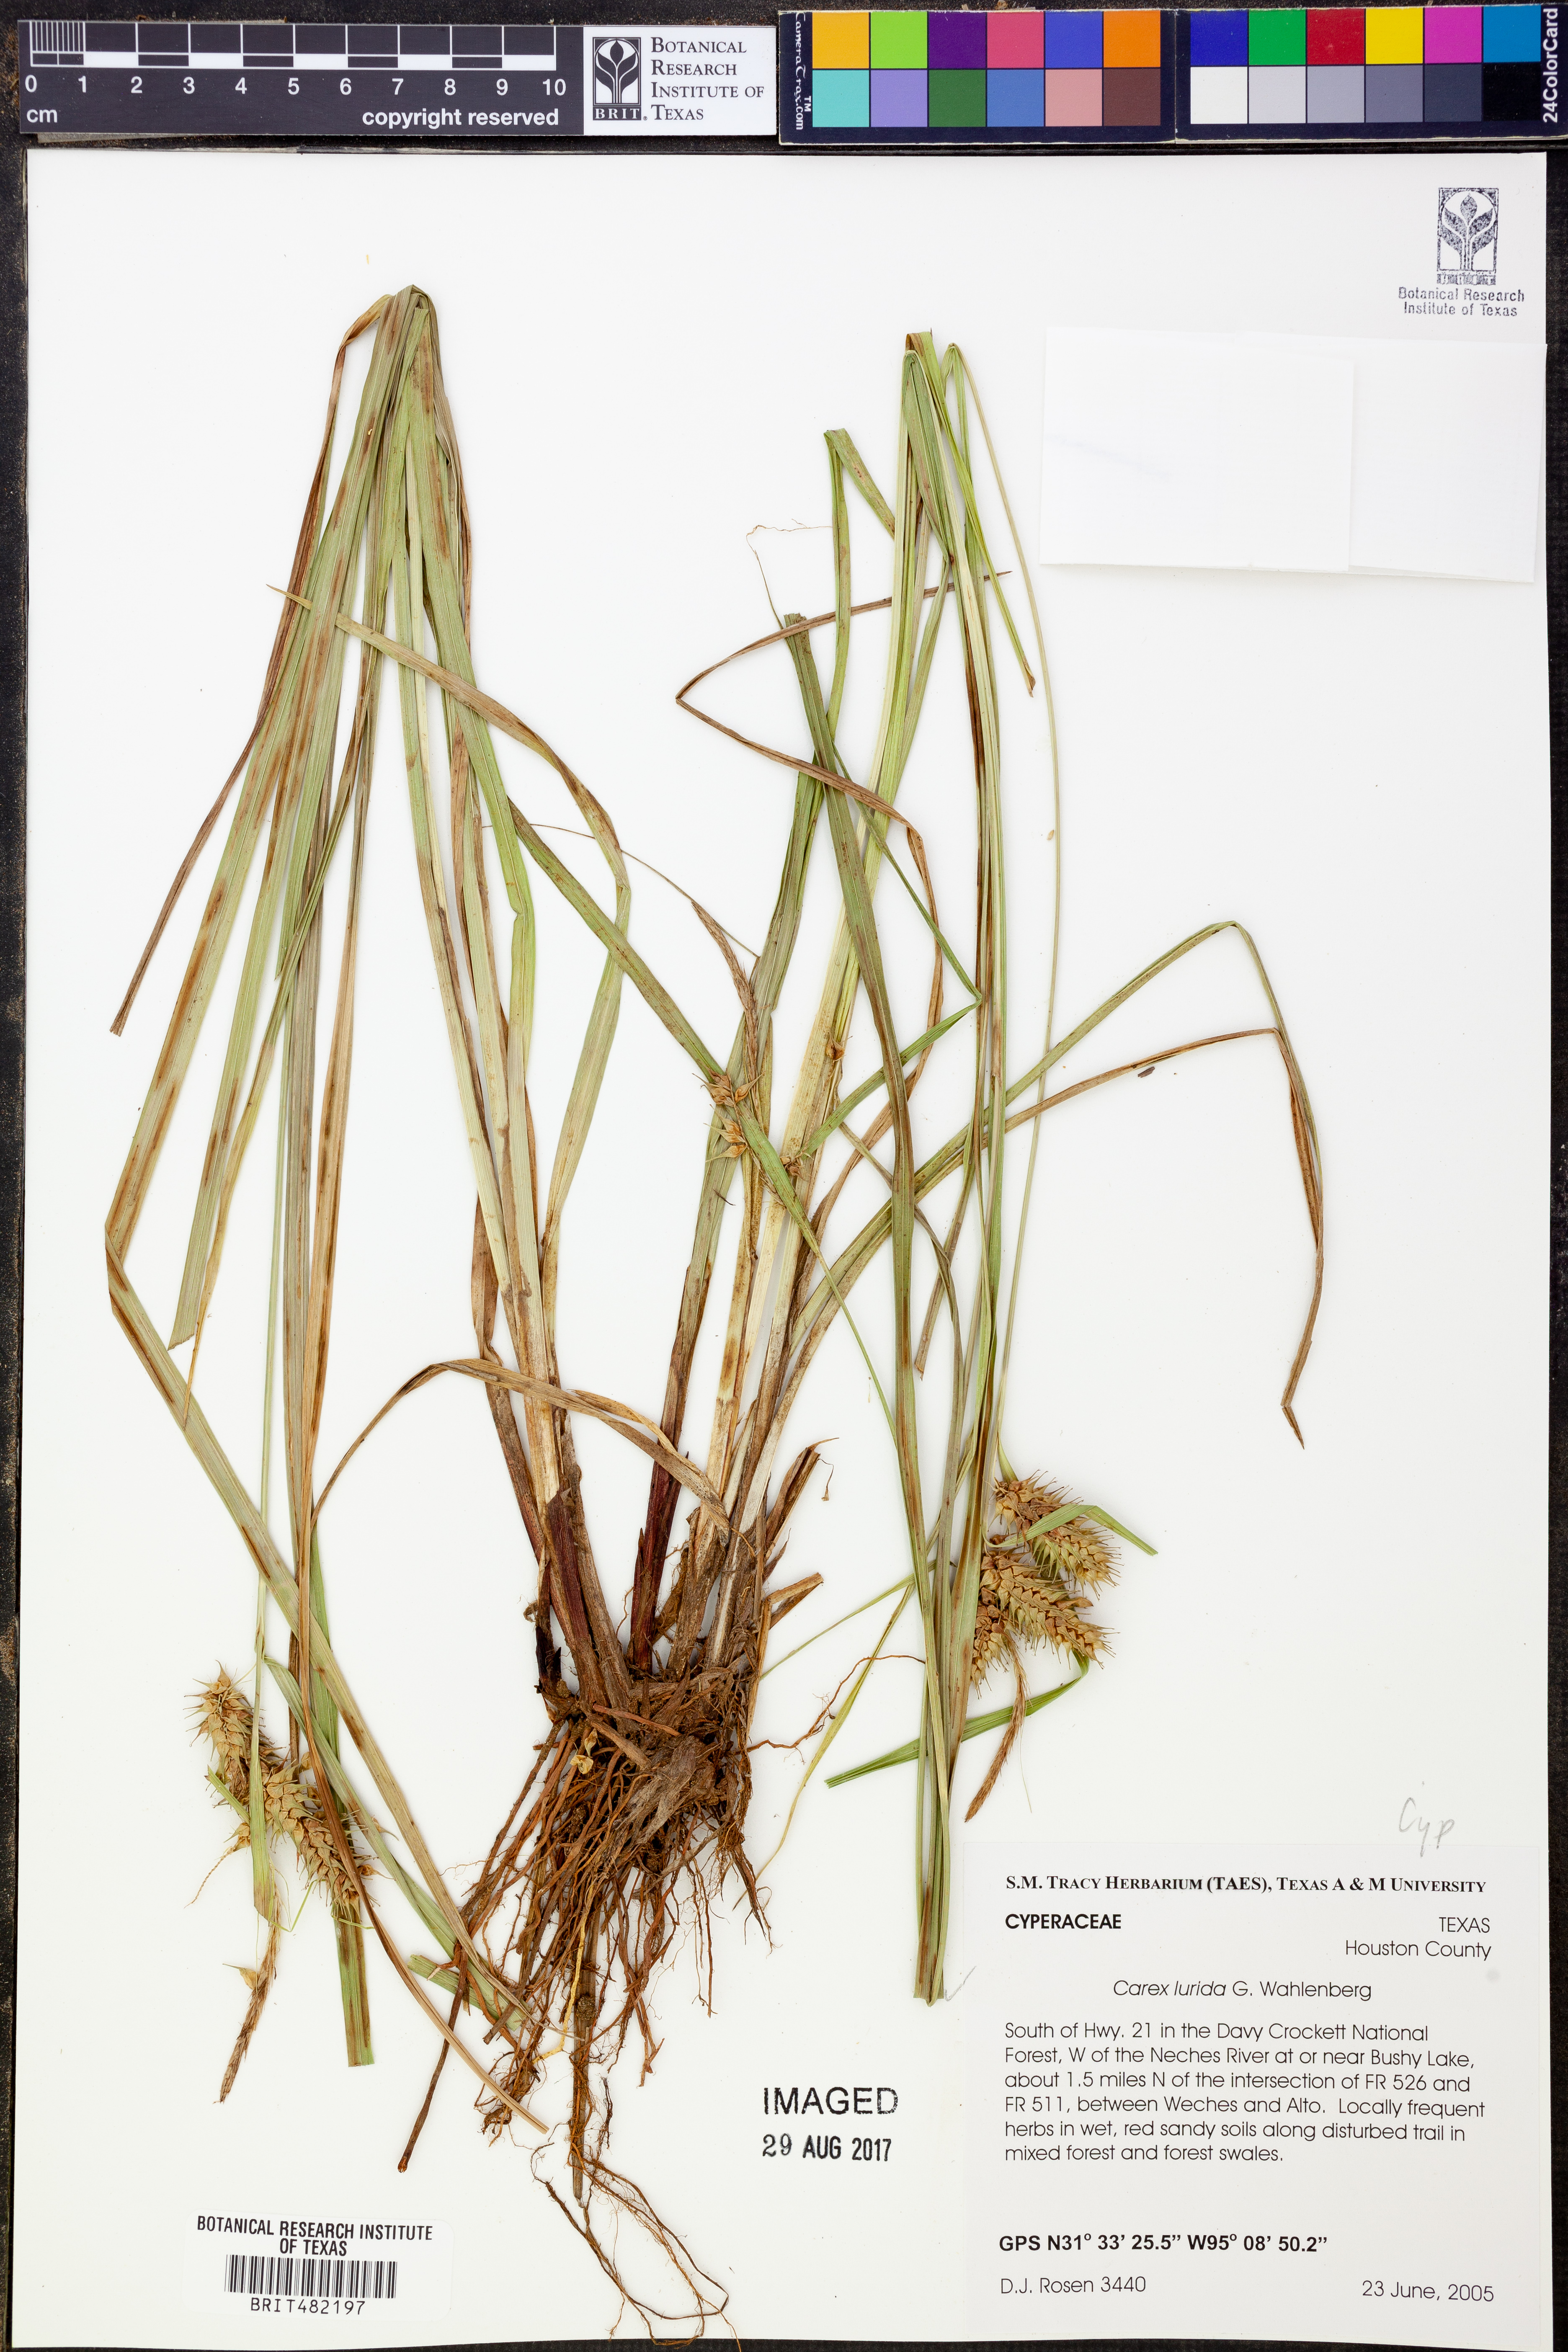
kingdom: Plantae
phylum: Tracheophyta
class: Liliopsida
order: Poales
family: Cyperaceae
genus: Carex
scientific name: Carex lurida
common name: Sallow sedge
